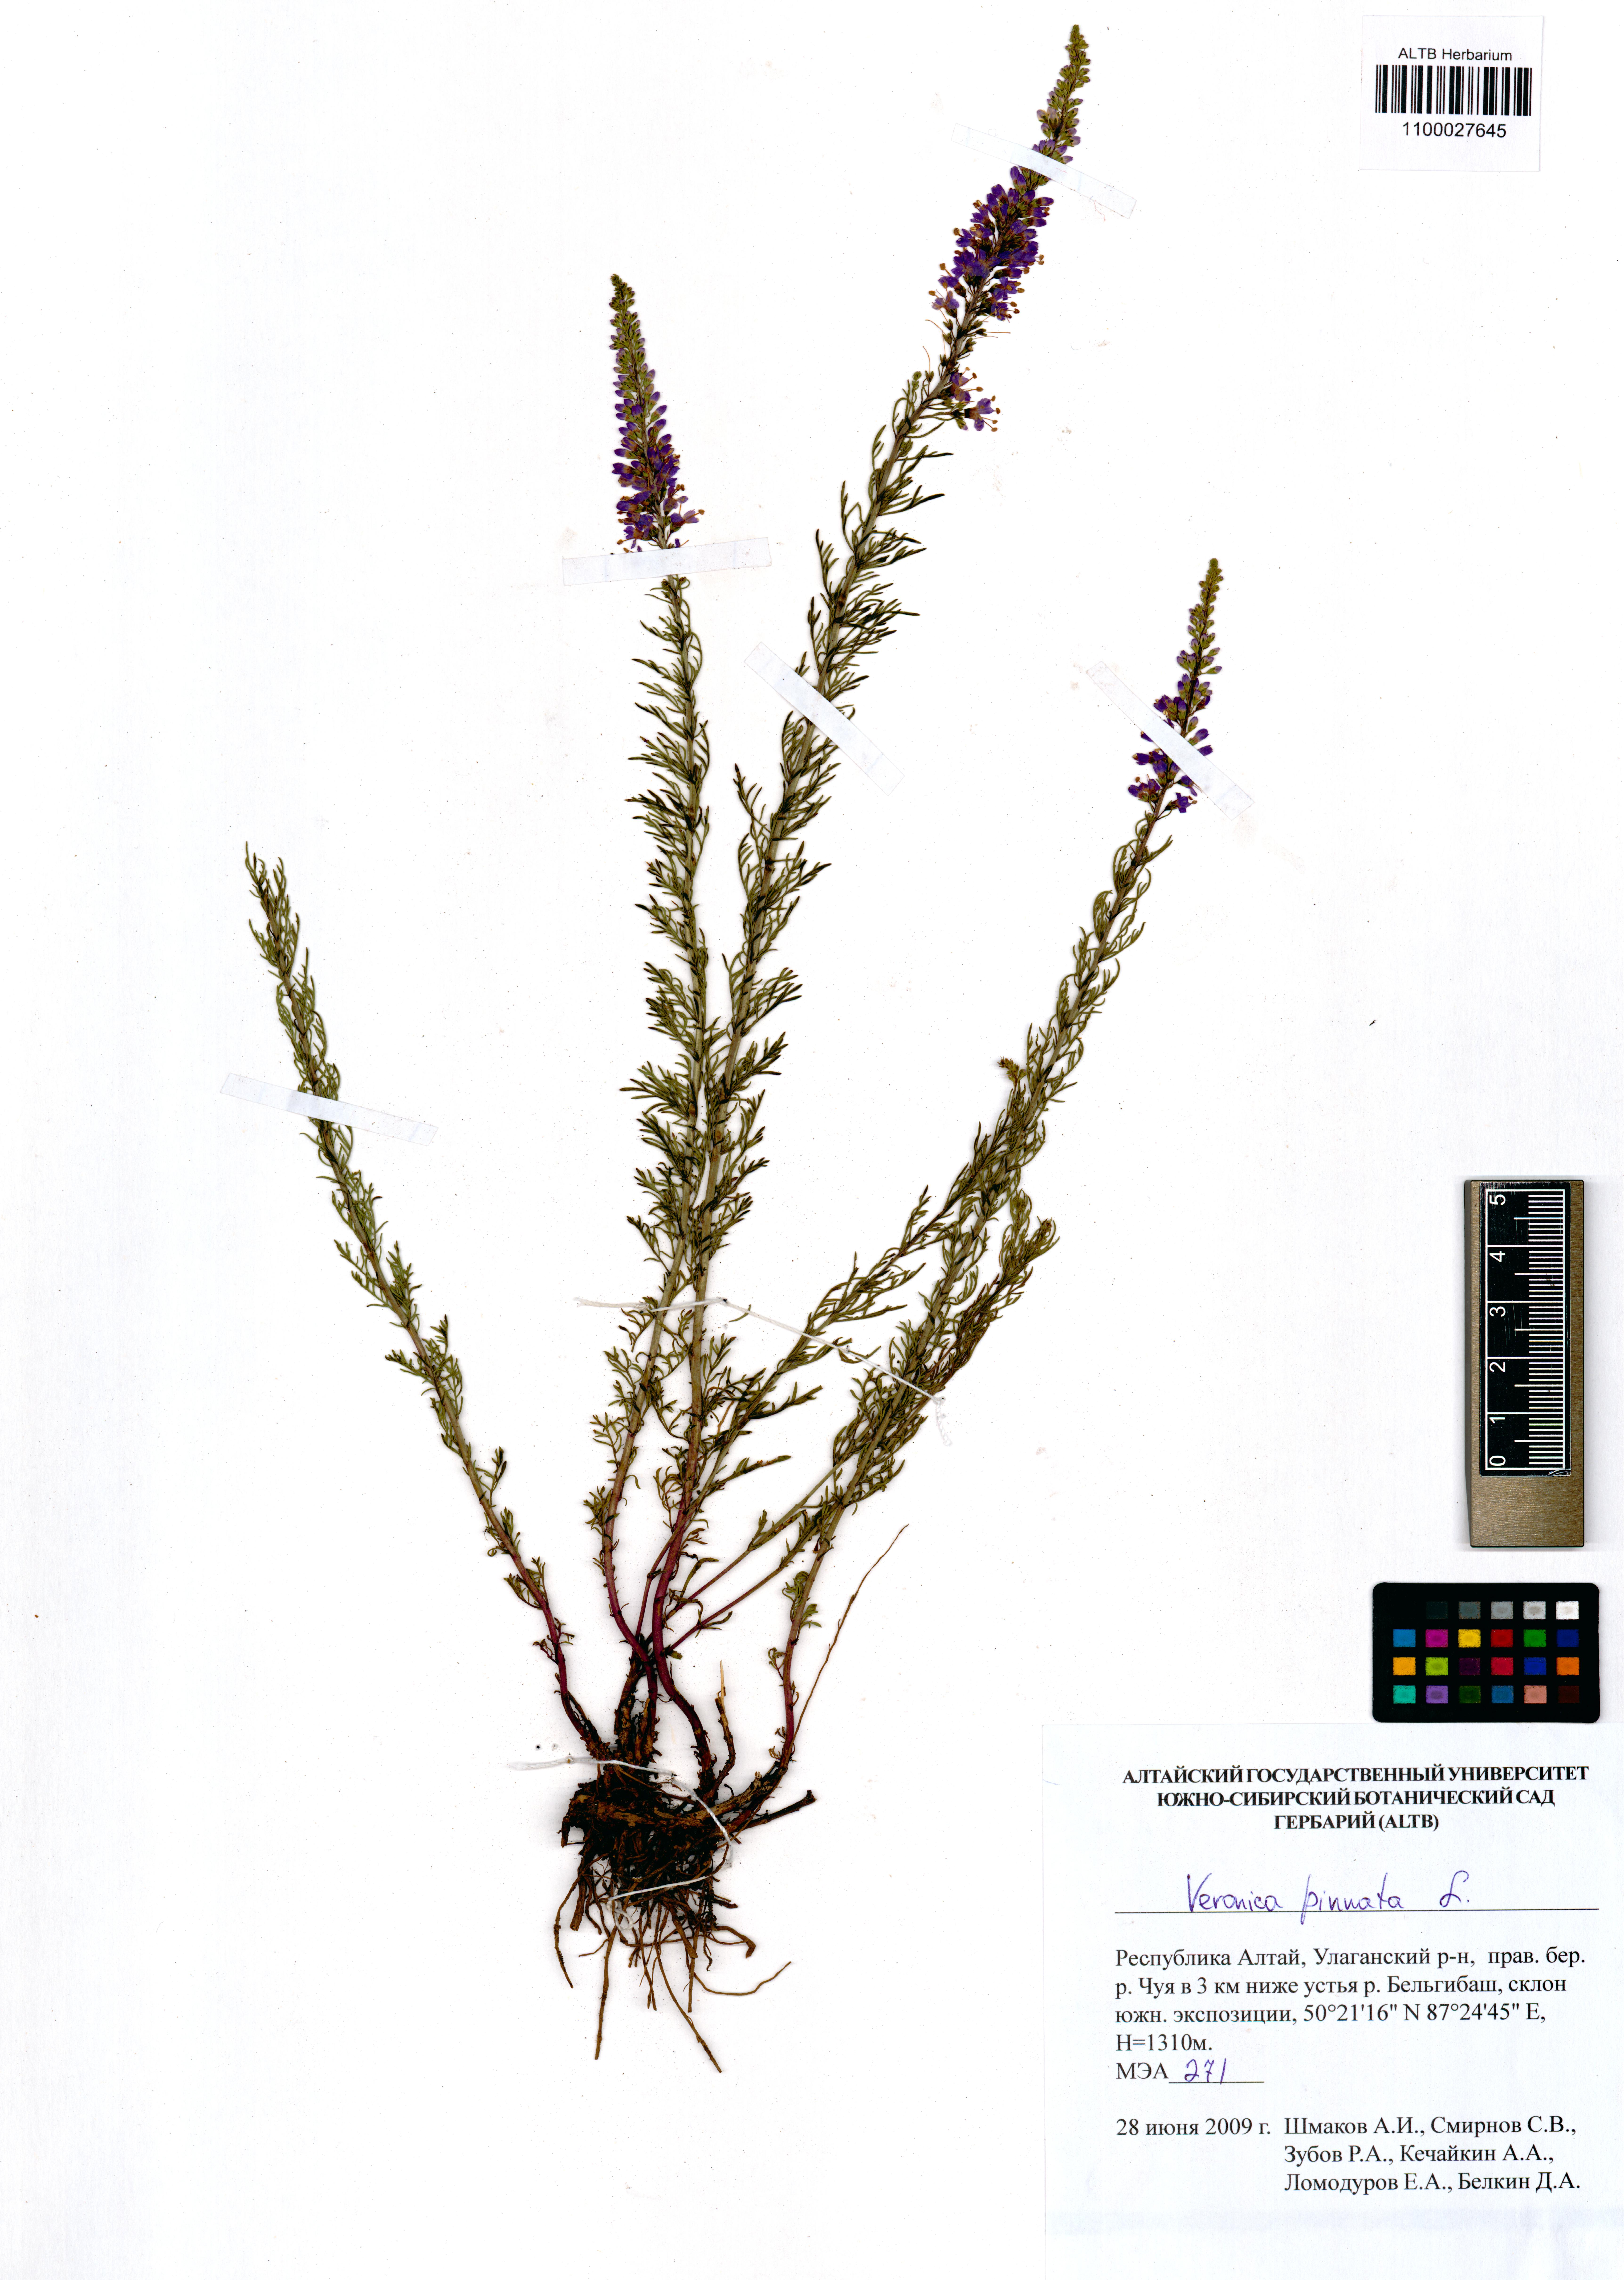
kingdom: Plantae
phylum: Tracheophyta
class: Magnoliopsida
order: Lamiales
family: Plantaginaceae
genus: Veronica
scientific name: Veronica pinnata
